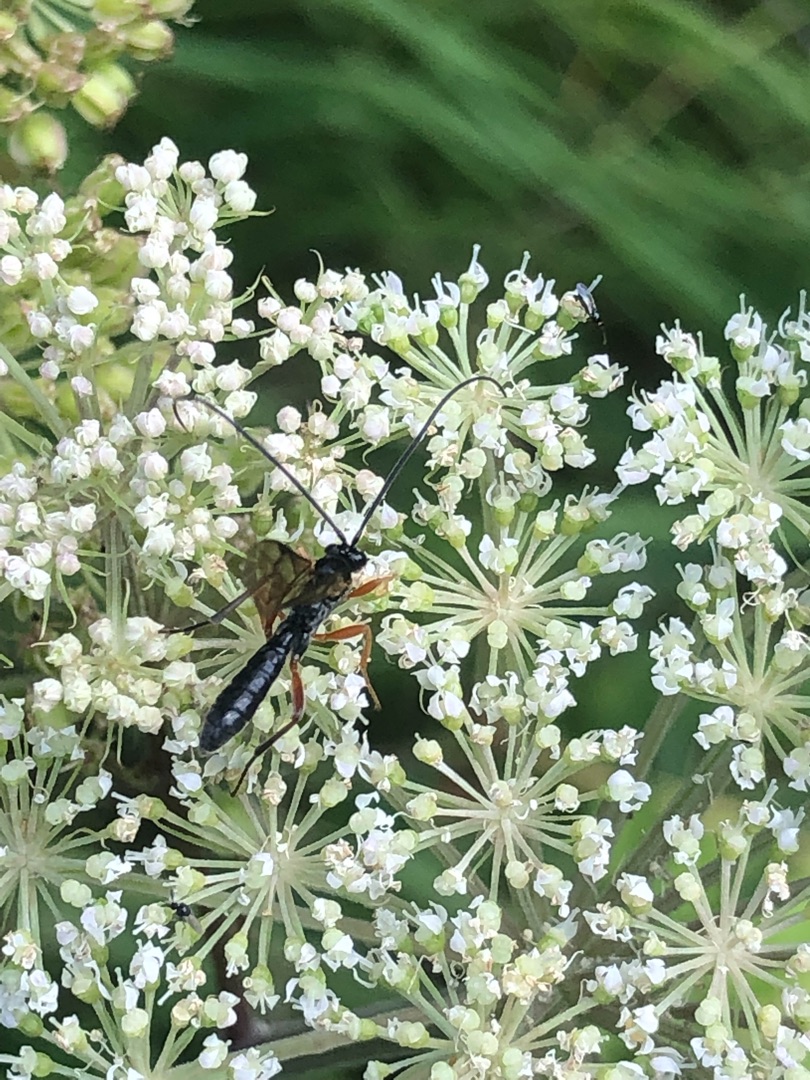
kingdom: Animalia
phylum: Arthropoda
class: Insecta
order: Hymenoptera
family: Ichneumonidae
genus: Dyspetes
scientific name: Dyspetes luteomarginatus
